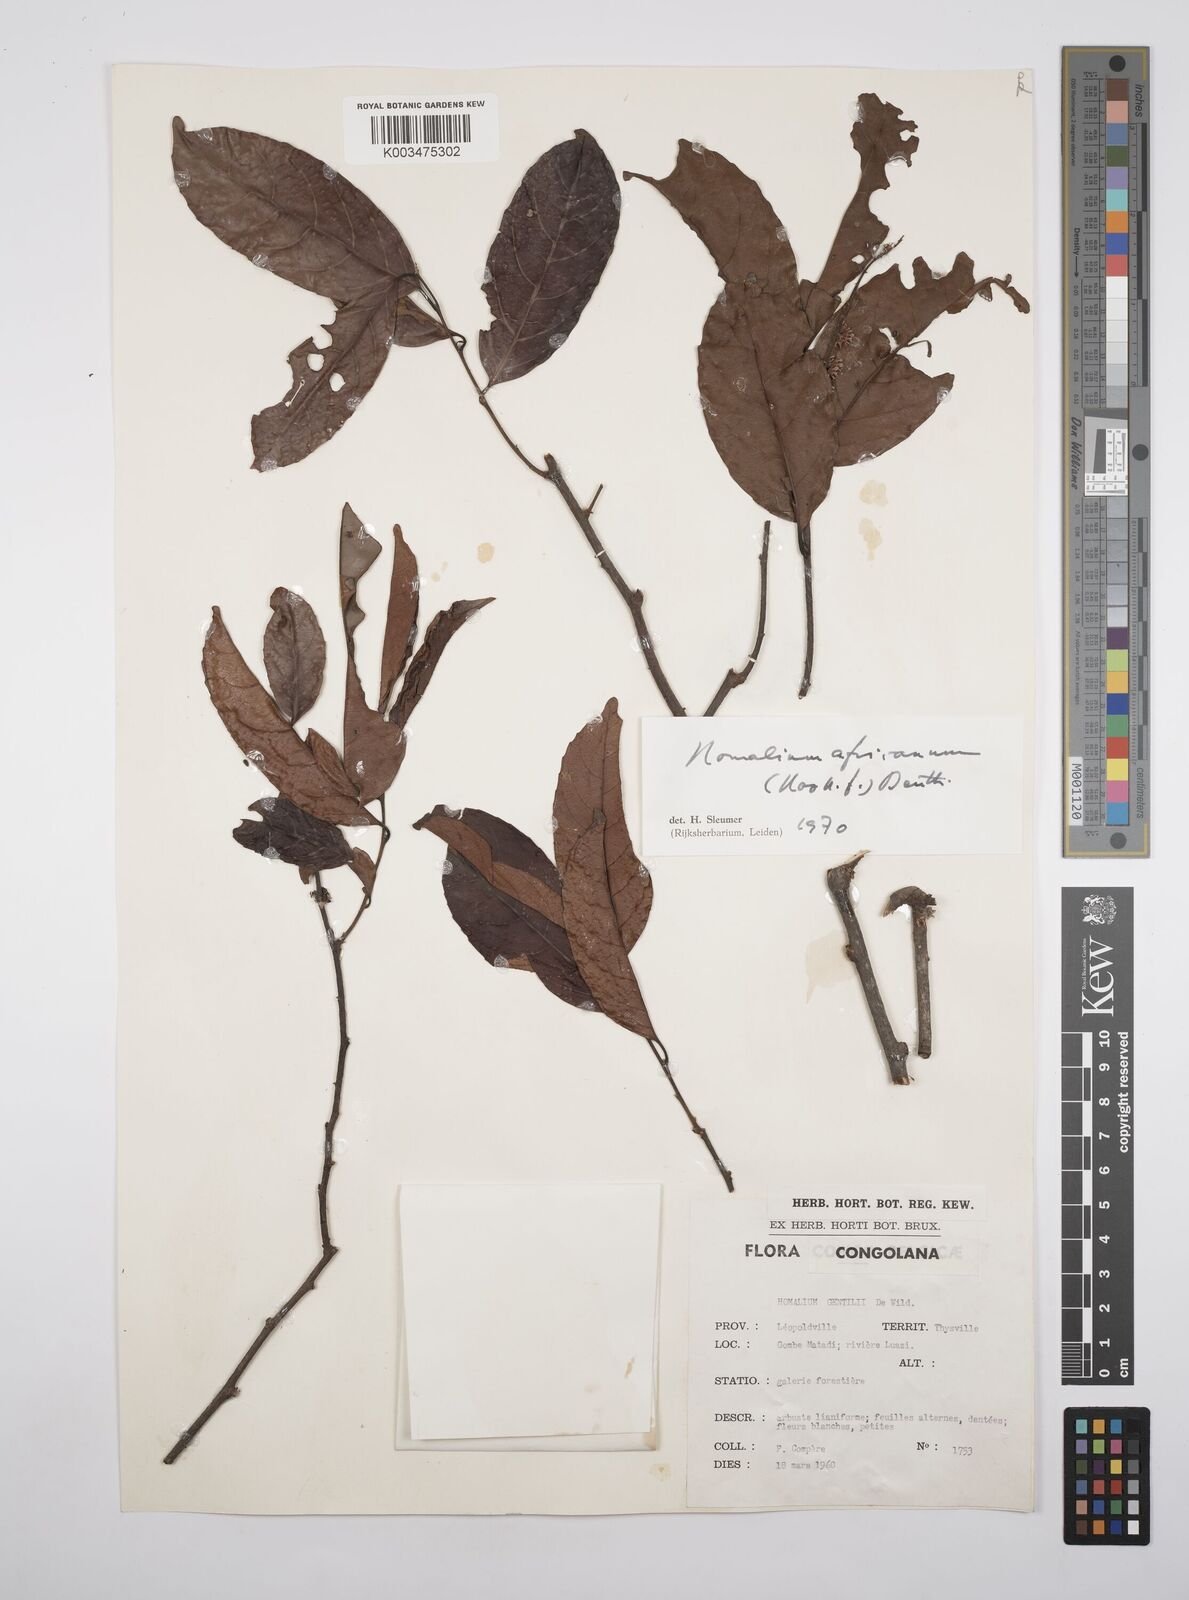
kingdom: Plantae
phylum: Tracheophyta
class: Magnoliopsida
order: Malpighiales
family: Salicaceae
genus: Homalium
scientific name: Homalium africanum
